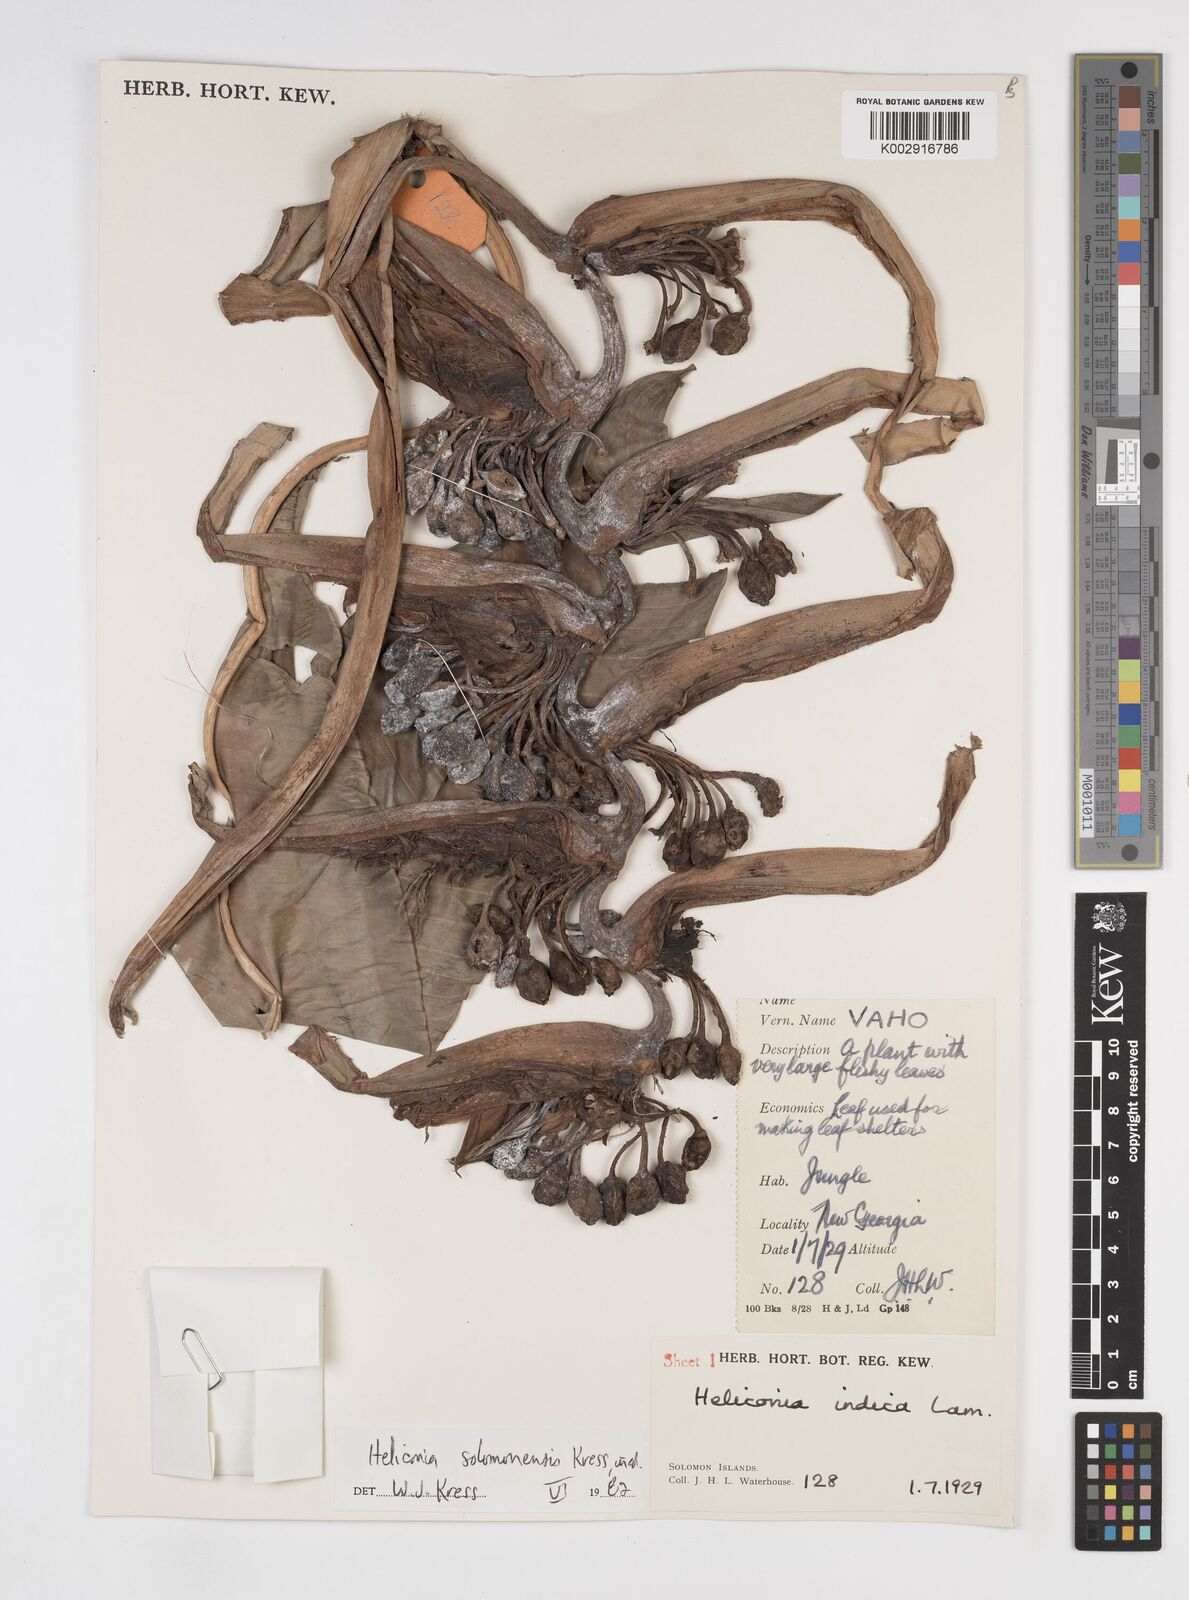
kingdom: Plantae
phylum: Tracheophyta
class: Liliopsida
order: Zingiberales
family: Heliconiaceae
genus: Heliconia
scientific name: Heliconia solomonensis
